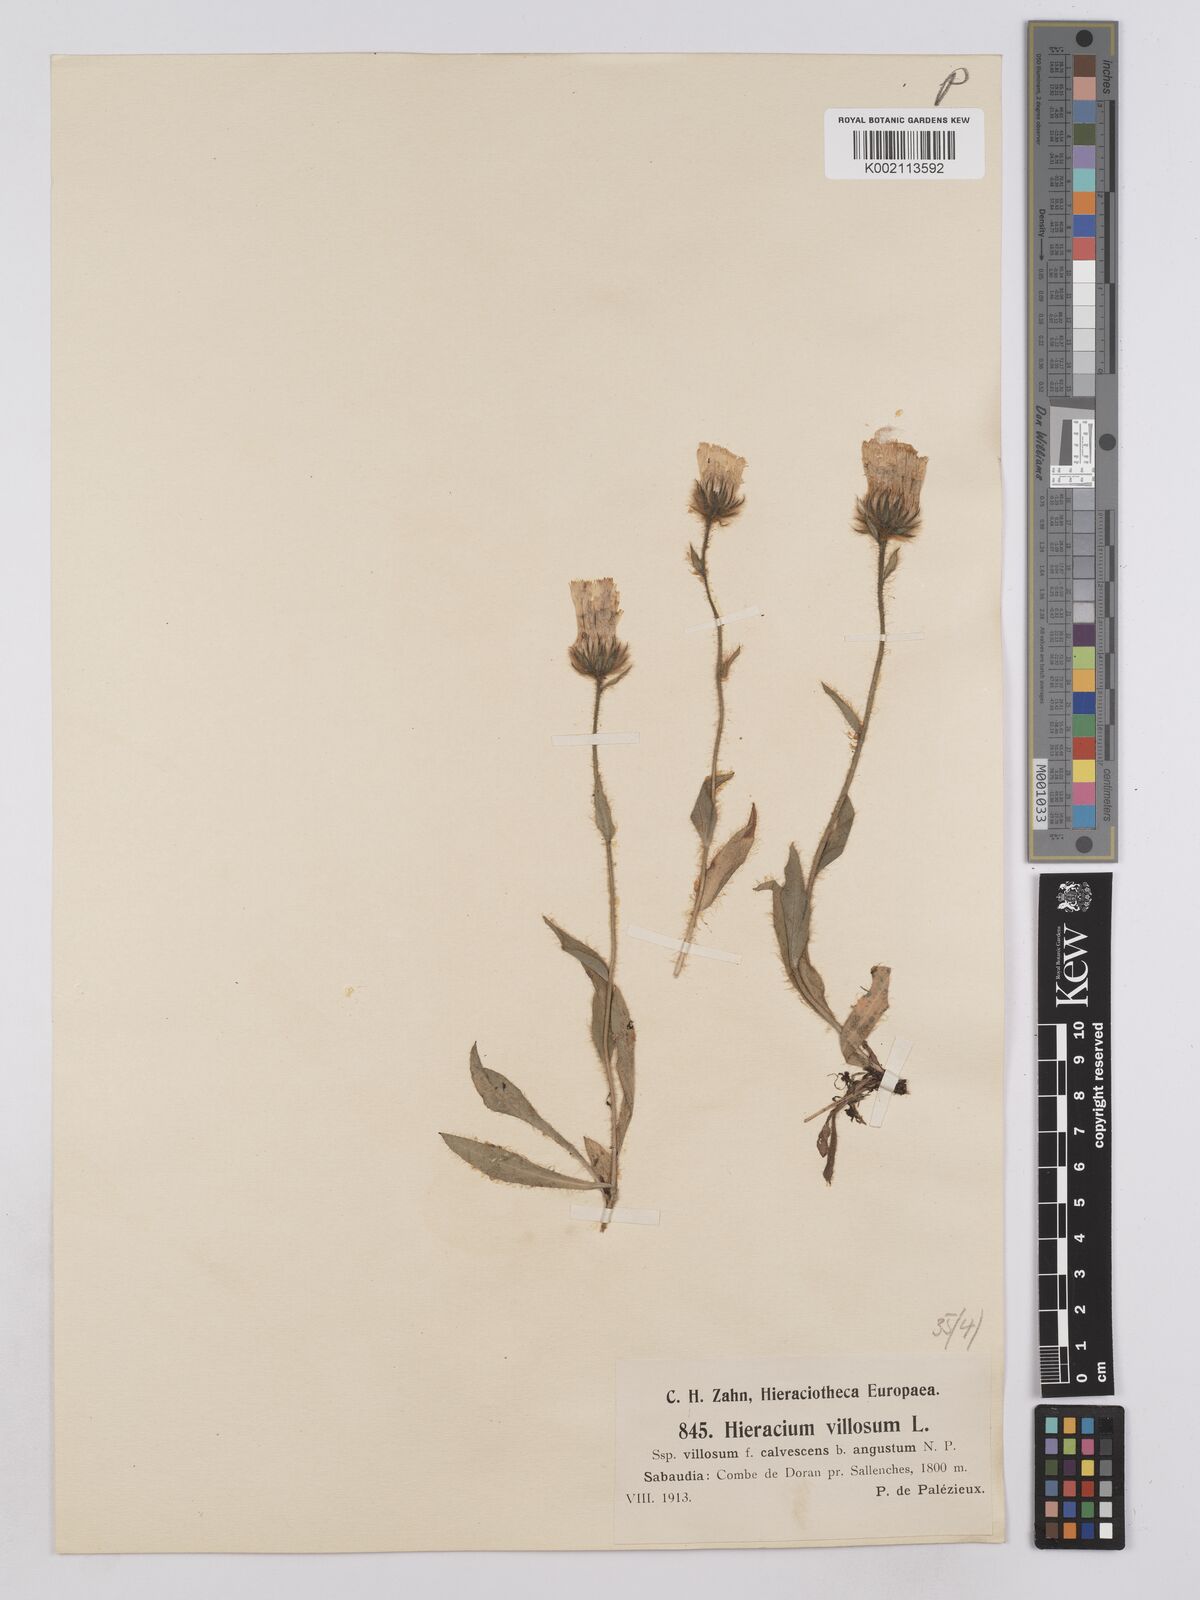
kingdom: Plantae
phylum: Tracheophyta
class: Magnoliopsida
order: Asterales
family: Asteraceae
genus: Hieracium
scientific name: Hieracium villosum
